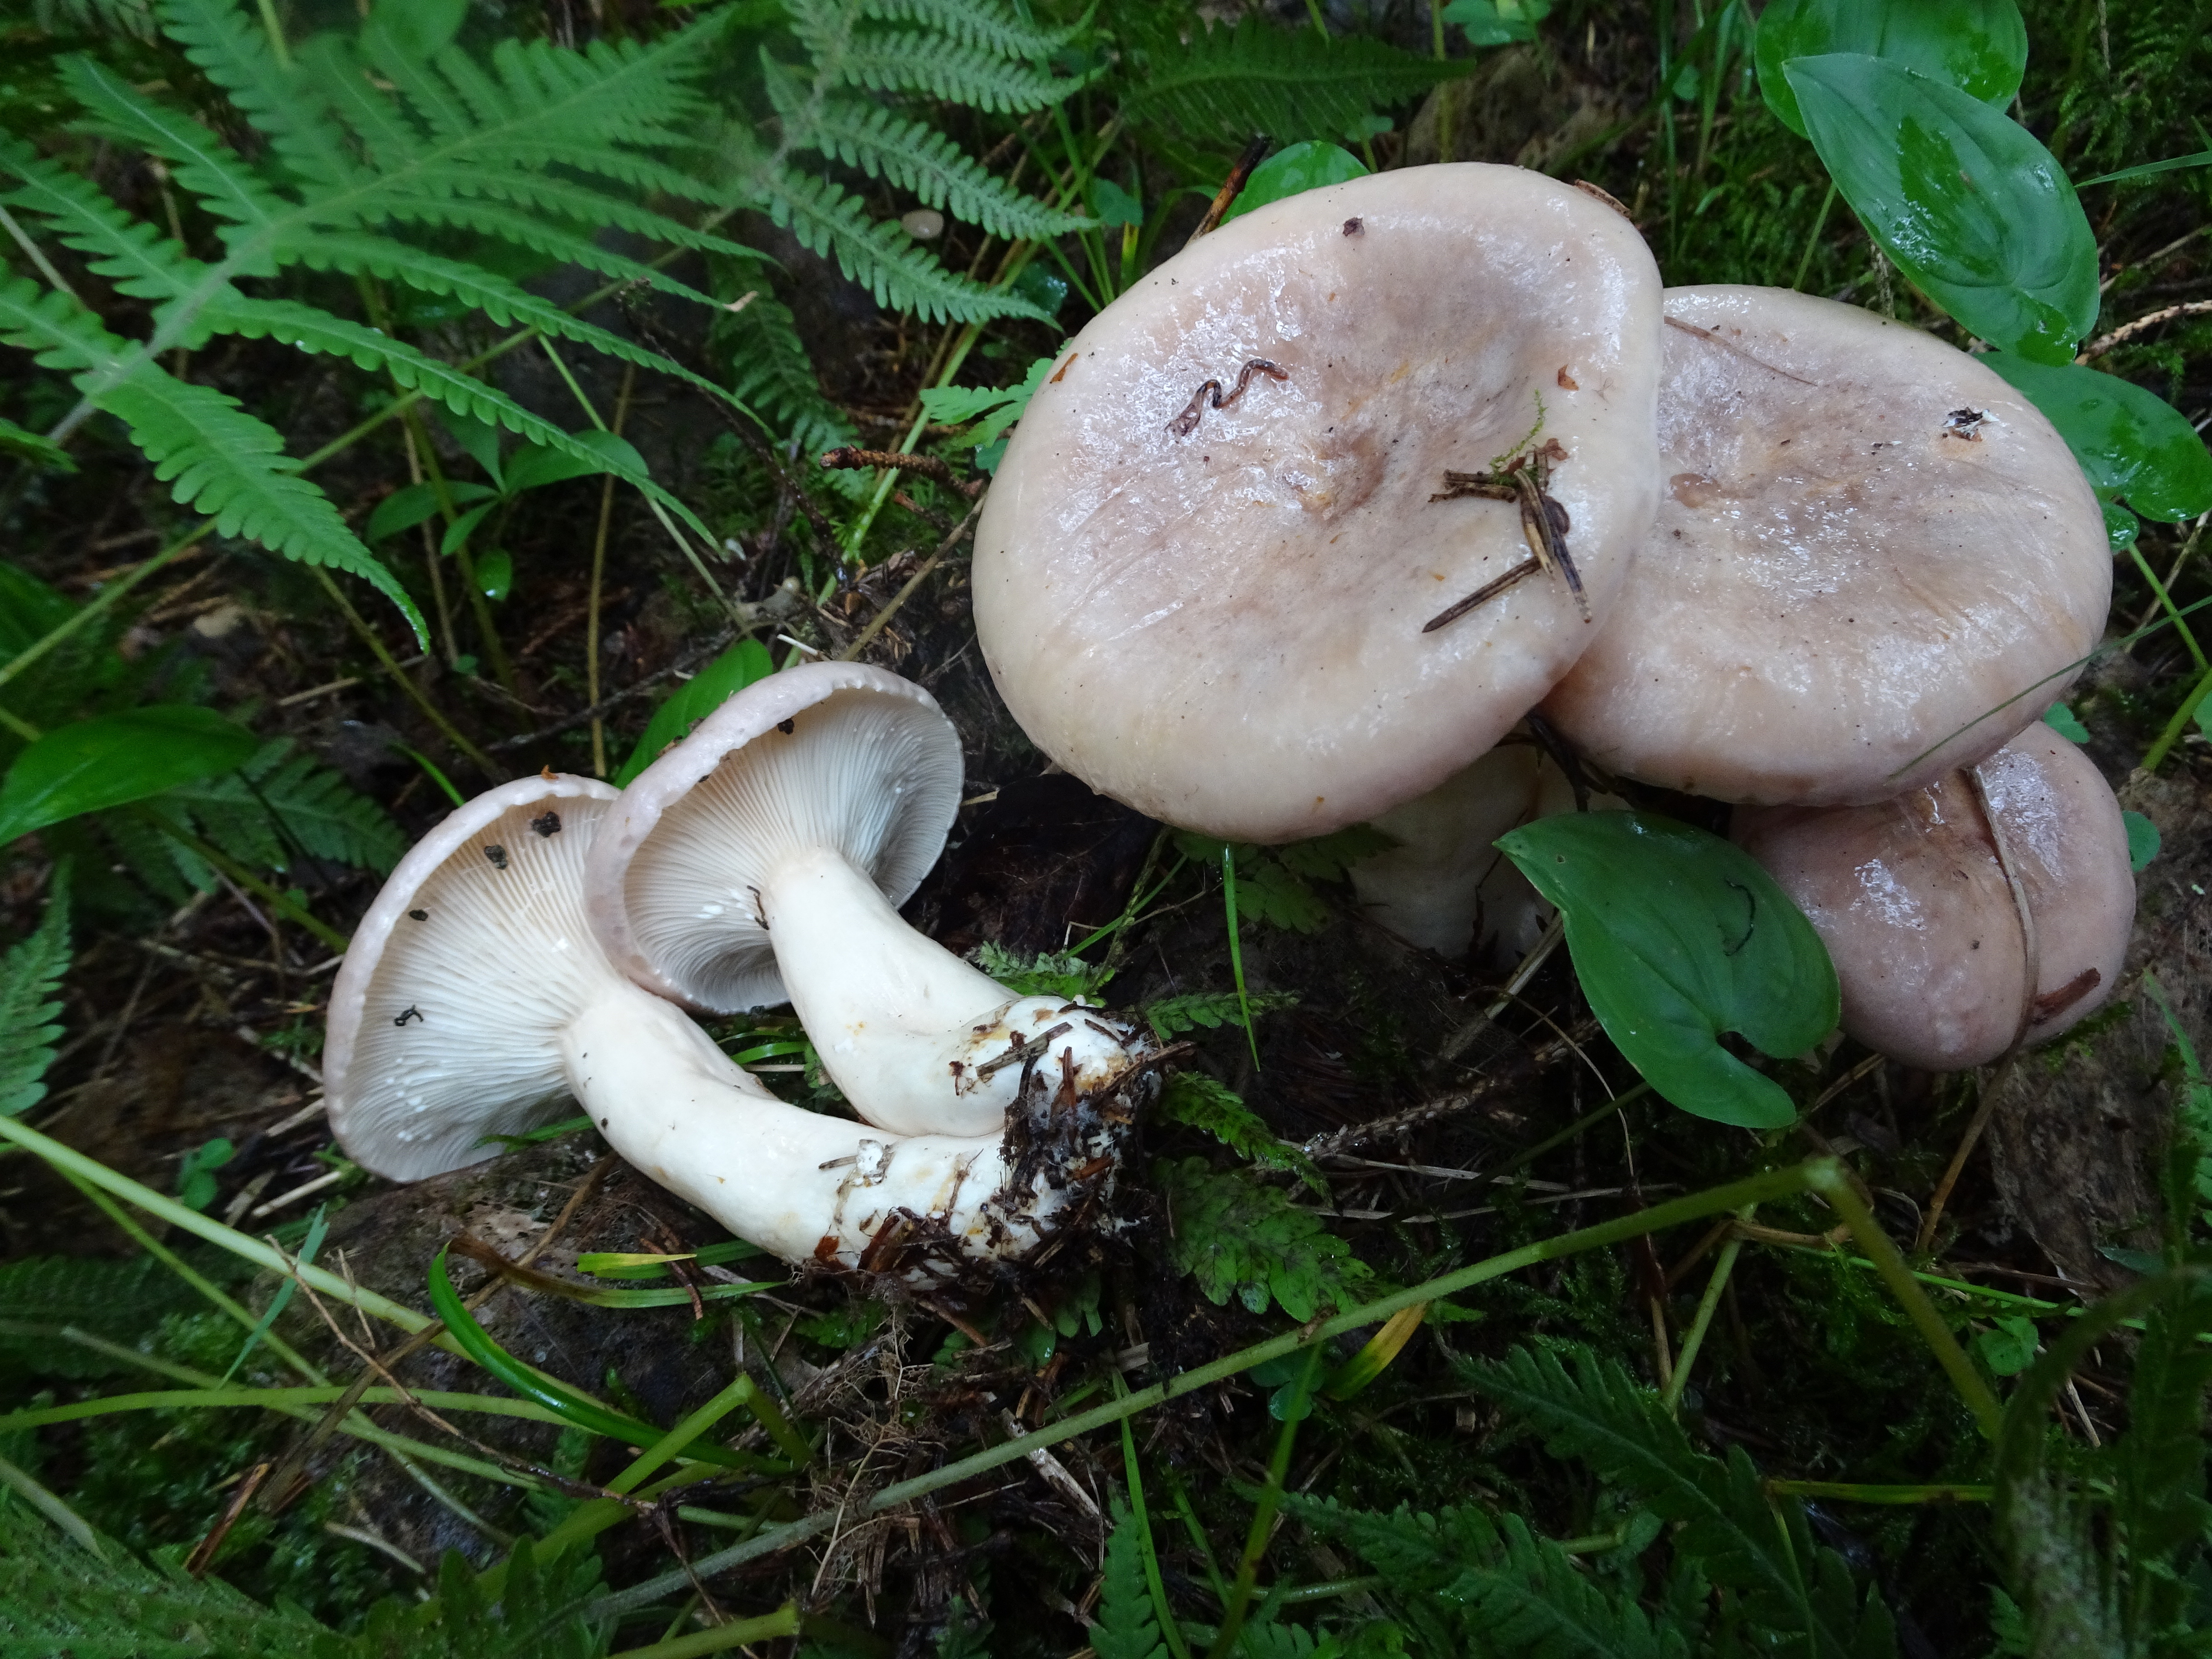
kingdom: Fungi
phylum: Basidiomycota
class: Agaricomycetes
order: Russulales
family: Russulaceae
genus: Lactarius
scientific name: Lactarius utilis
